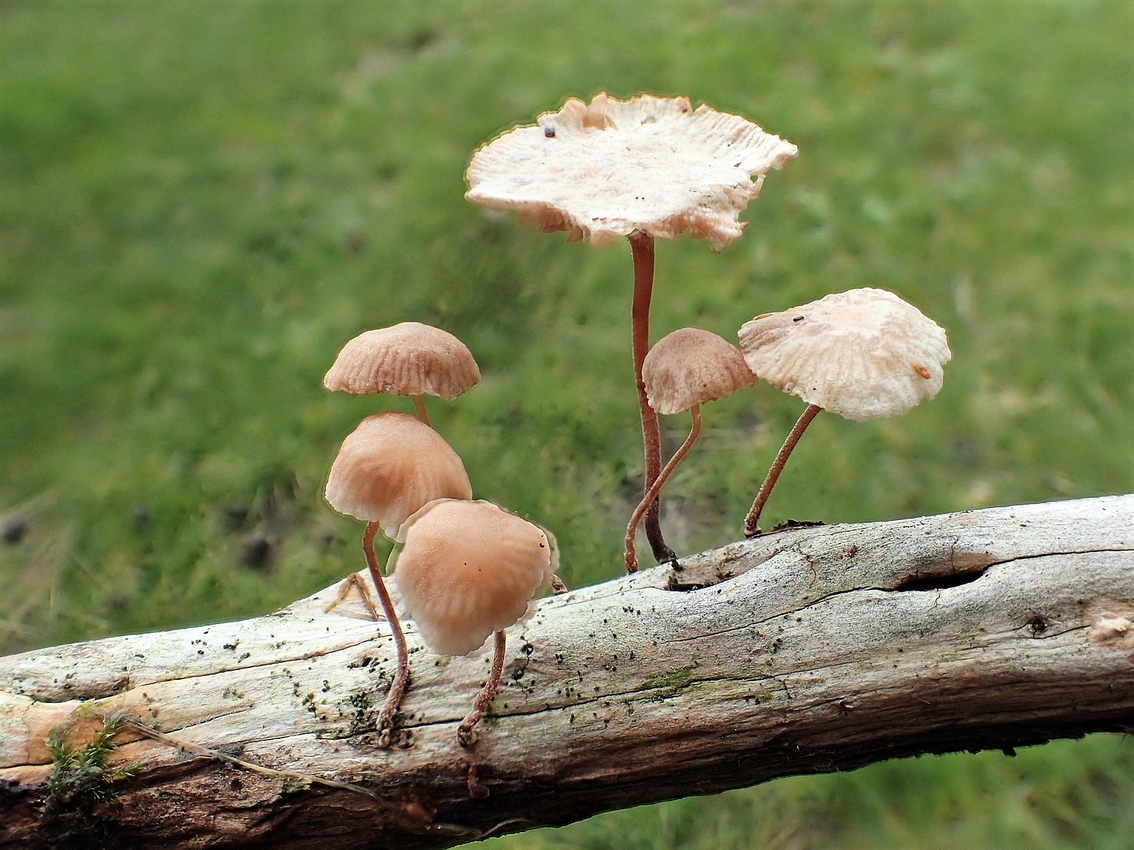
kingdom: Fungi
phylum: Basidiomycota
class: Agaricomycetes
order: Agaricales
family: Omphalotaceae
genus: Marasmiellus
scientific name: Marasmiellus
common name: bruskhat
